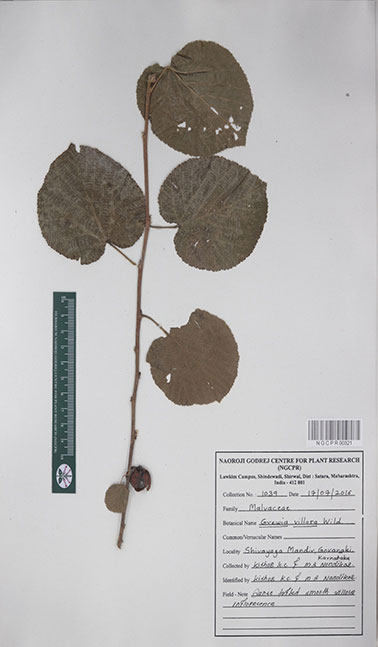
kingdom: Plantae
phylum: Tracheophyta
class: Magnoliopsida
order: Malvales
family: Malvaceae
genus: Grewia
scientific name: Grewia villosa
